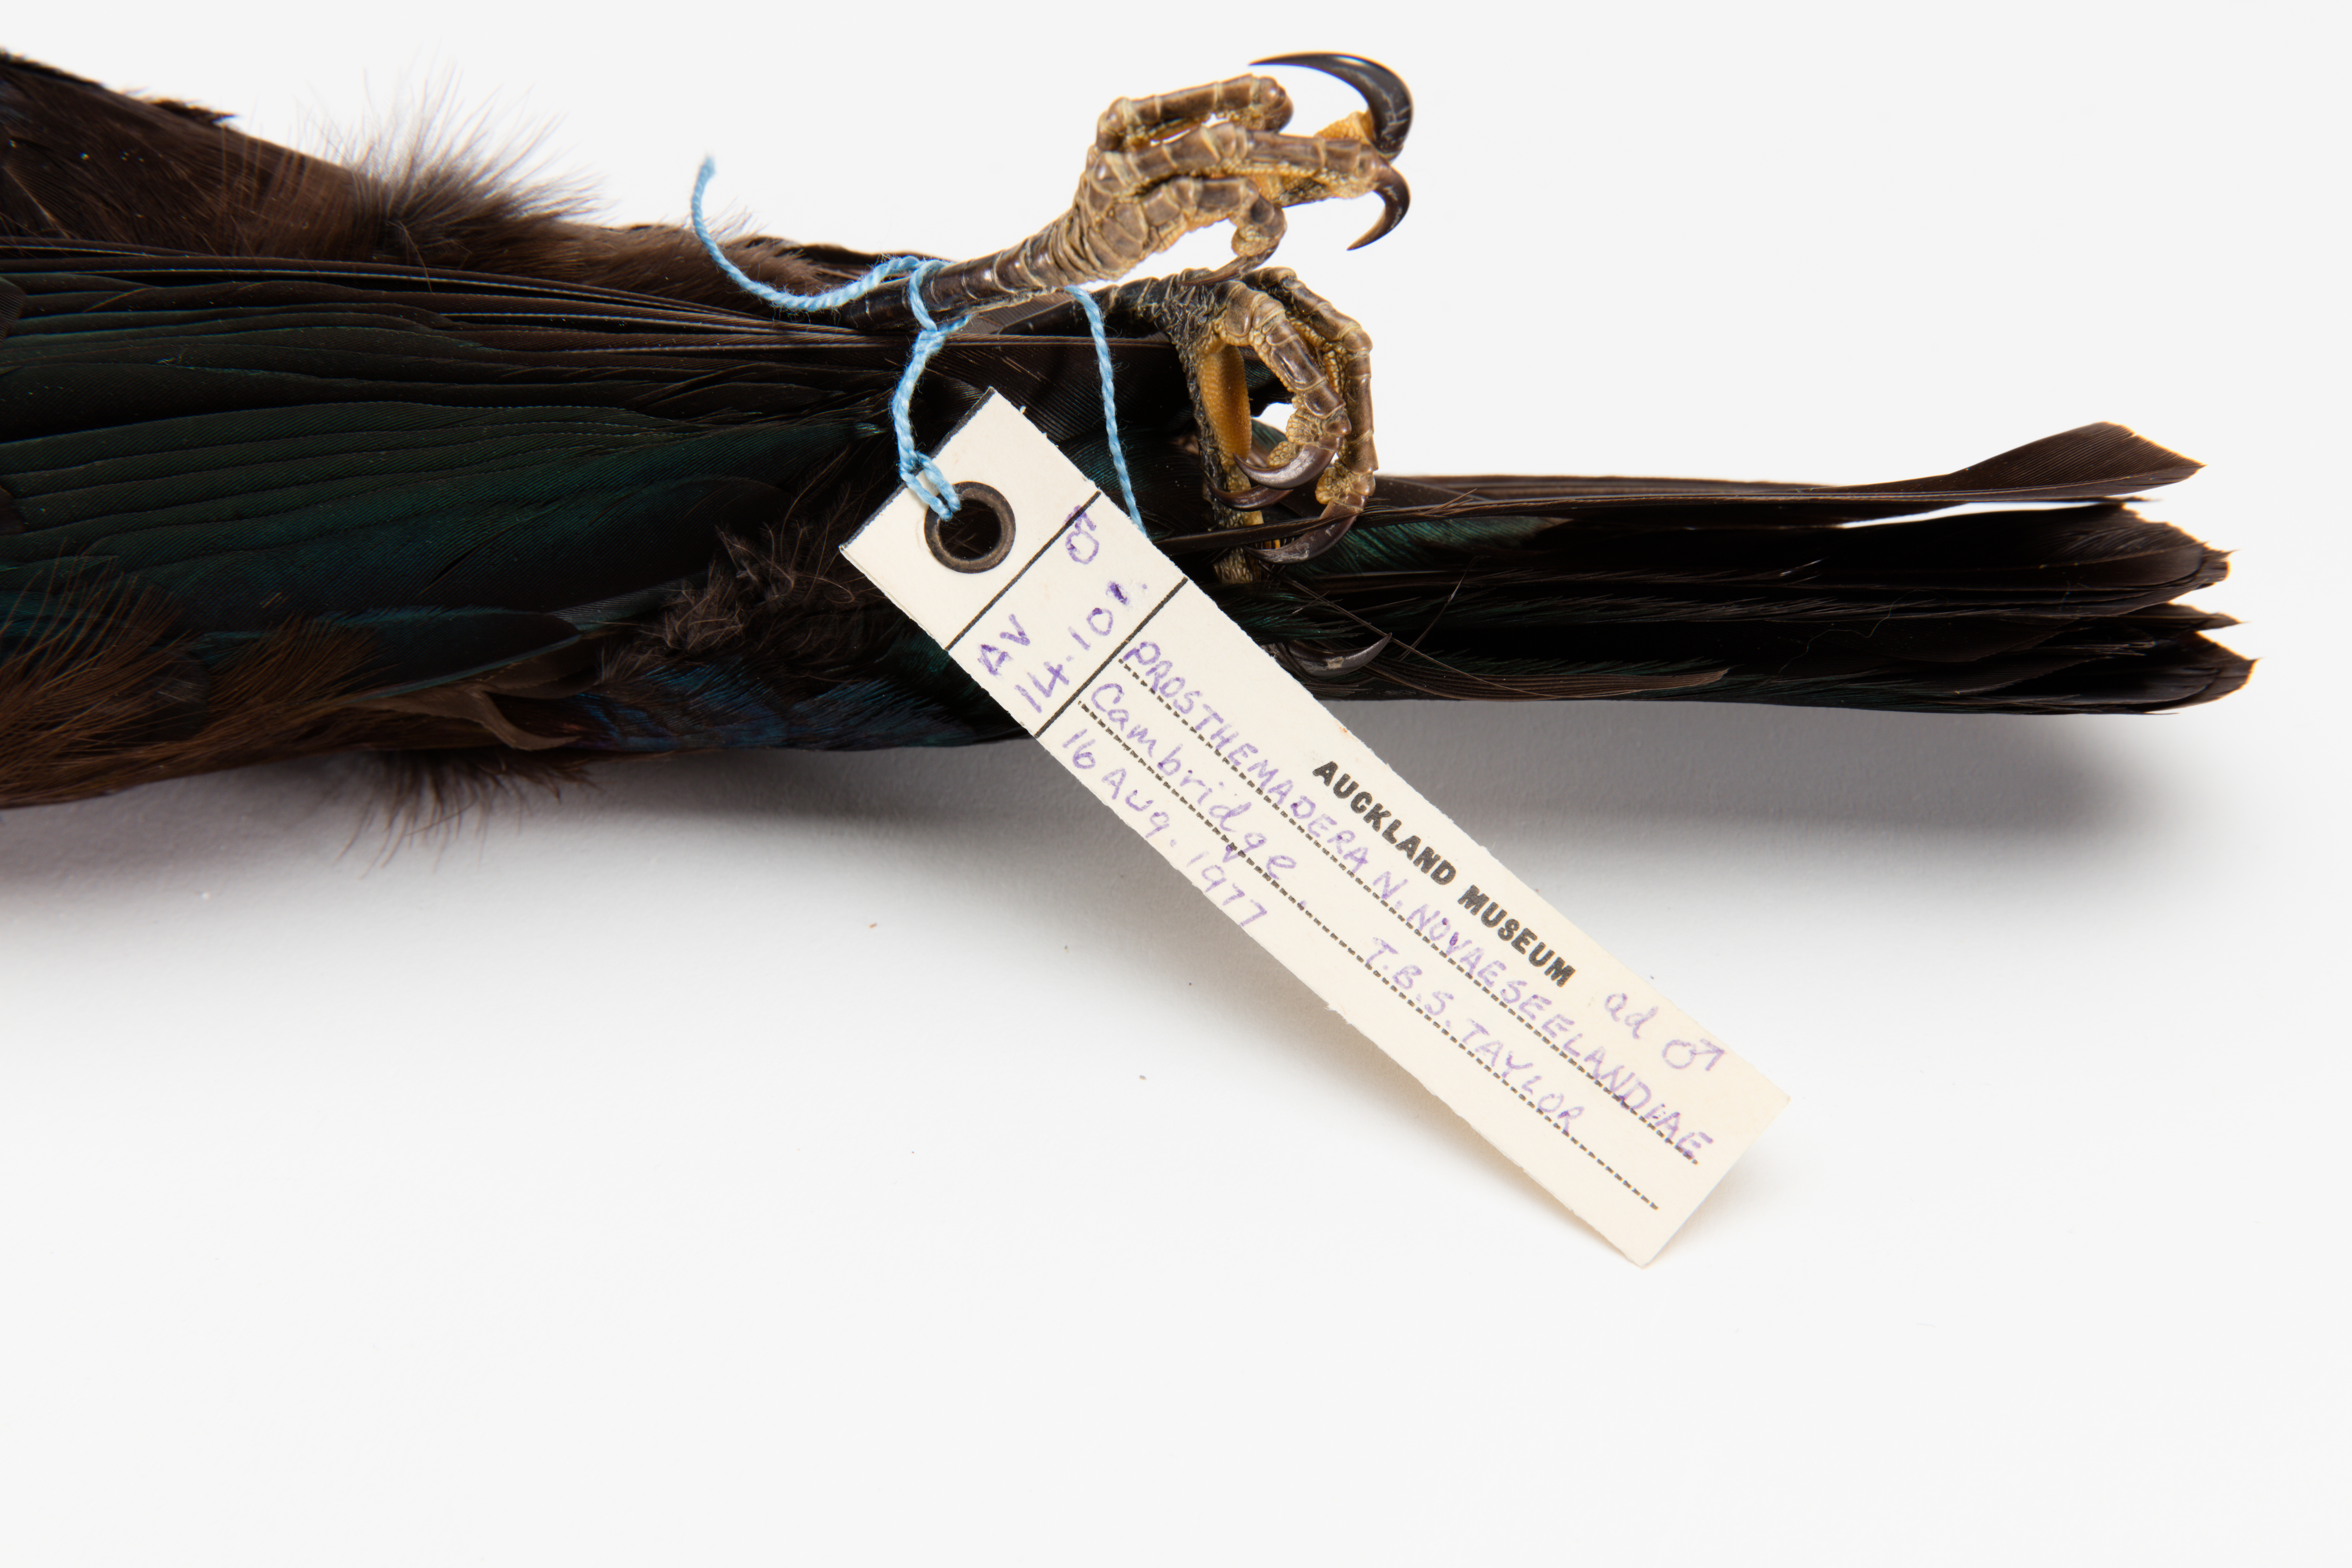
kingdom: Animalia
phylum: Chordata
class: Aves
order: Passeriformes
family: Meliphagidae
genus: Prosthemadera
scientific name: Prosthemadera novaeseelandiae
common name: Tui
